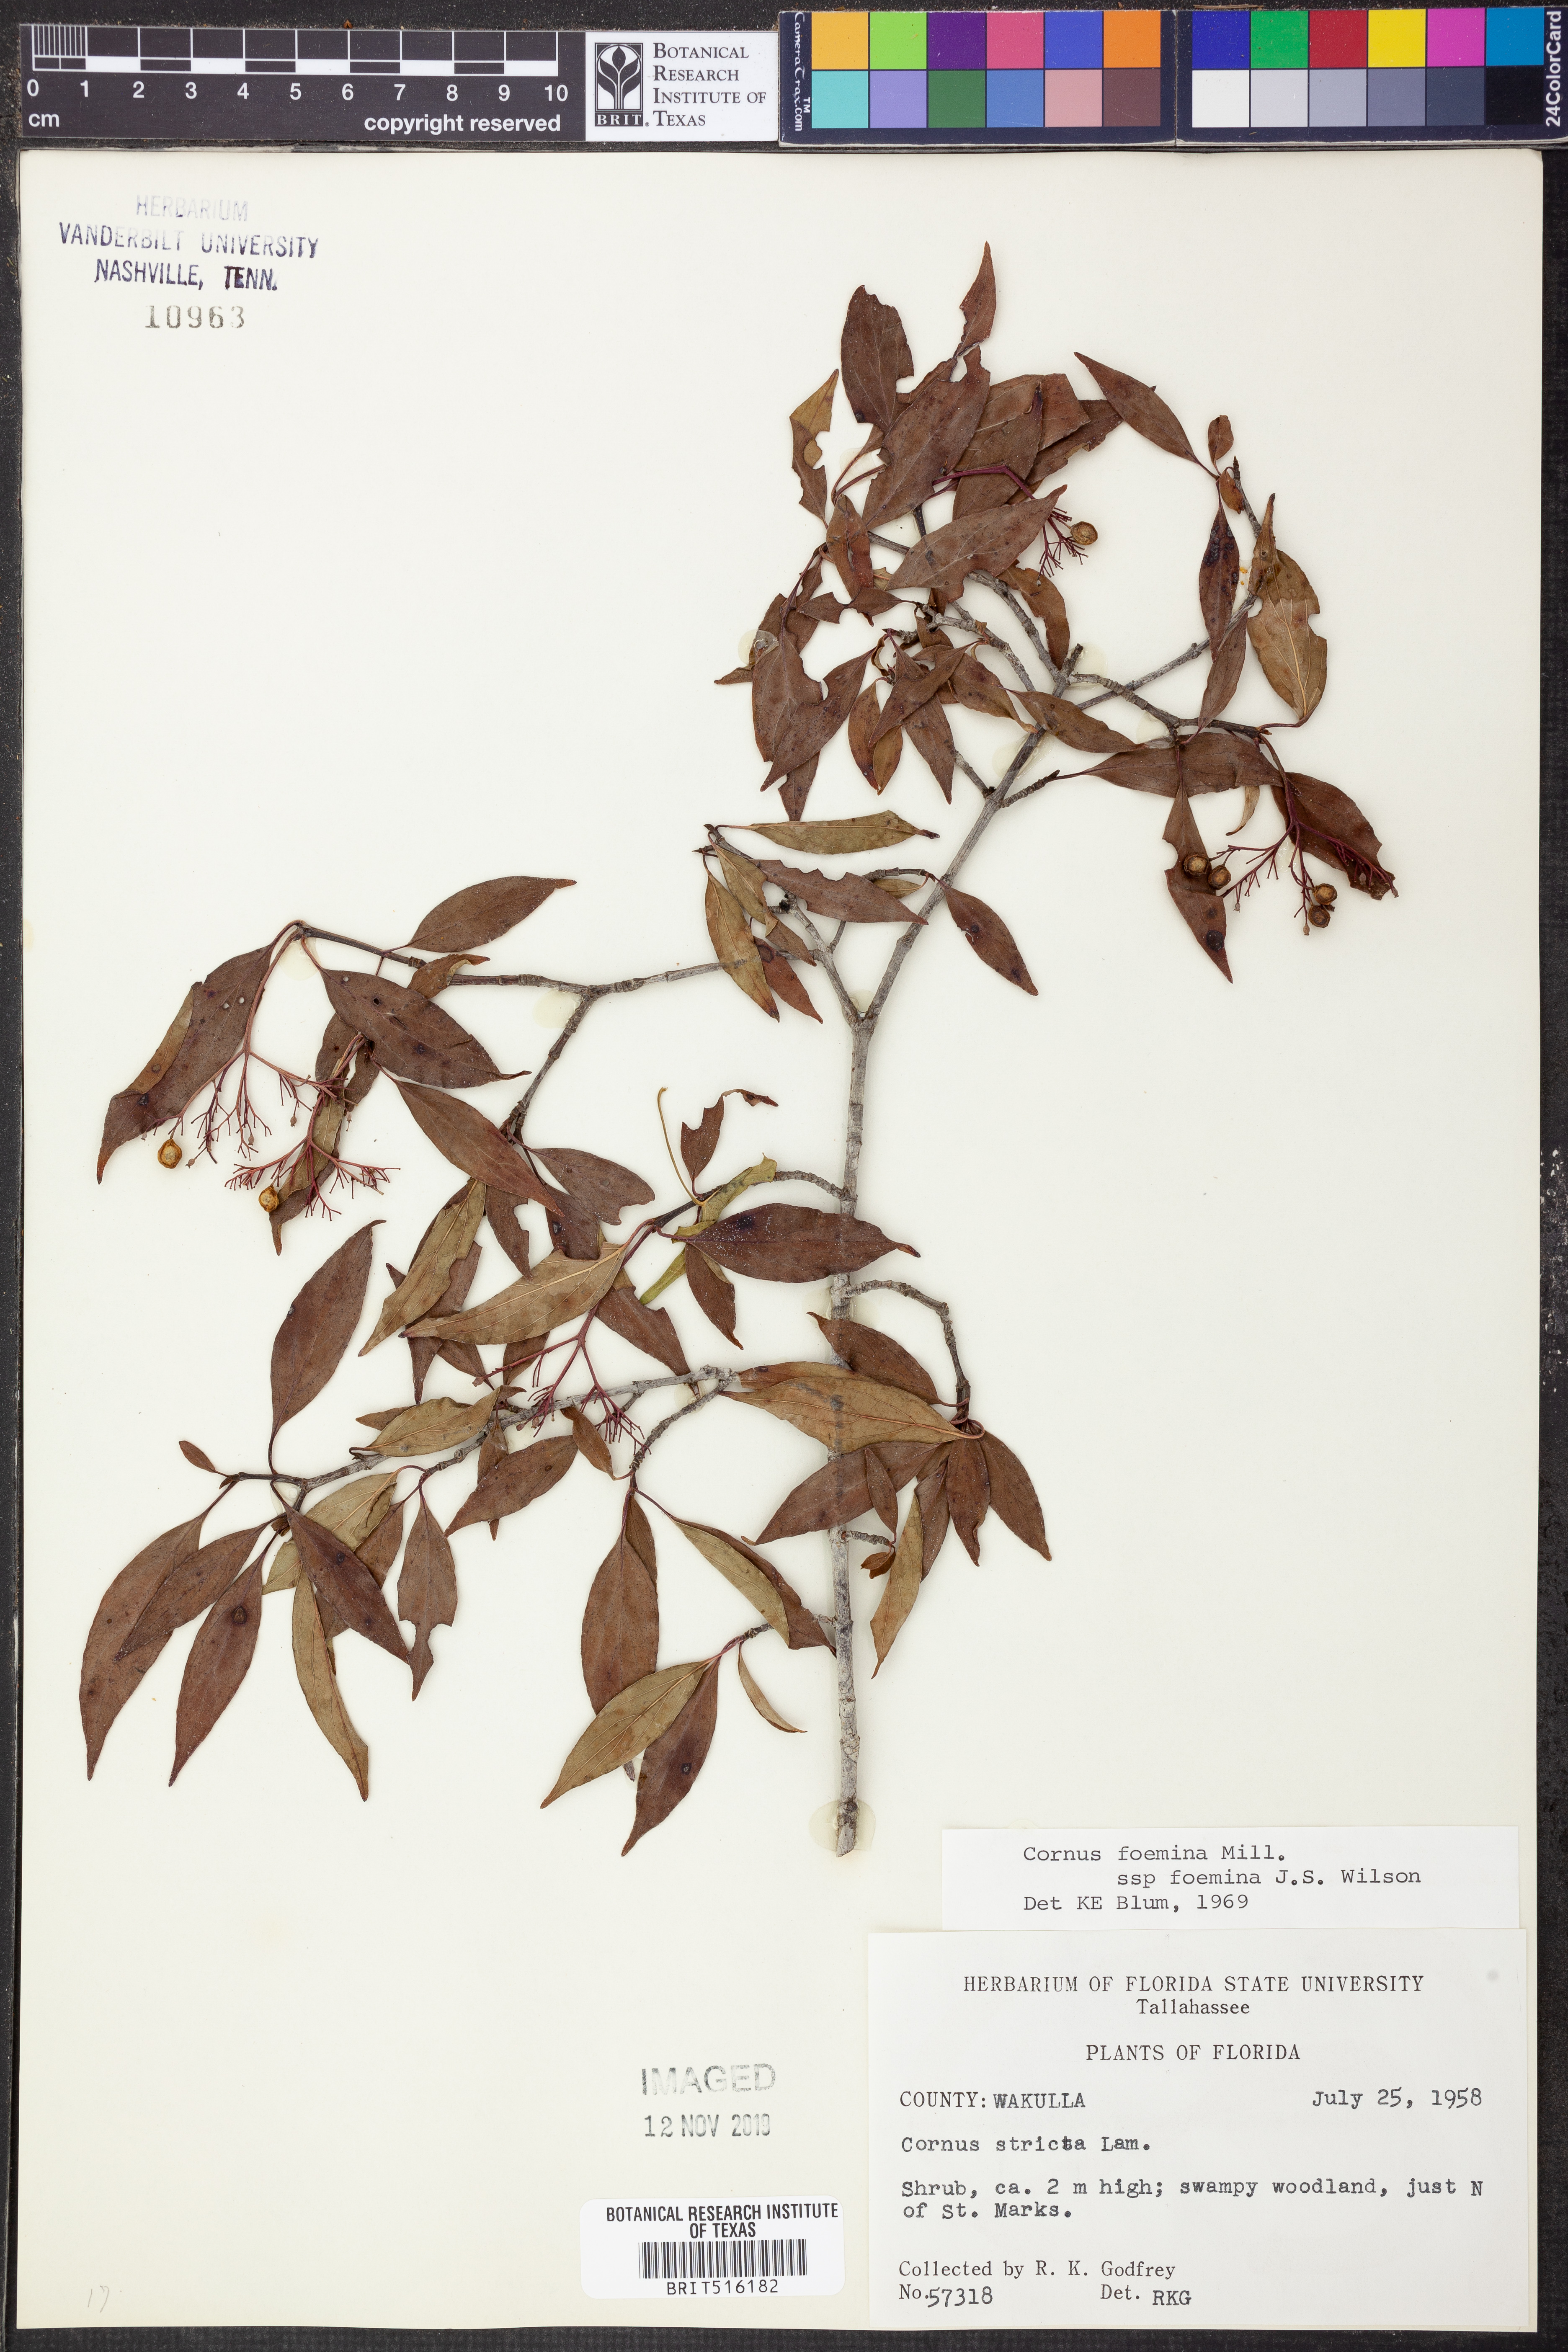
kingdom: Plantae
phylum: Tracheophyta
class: Magnoliopsida
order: Cornales
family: Cornaceae
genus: Cornus
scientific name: Cornus foemina
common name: Swamp dogwood
